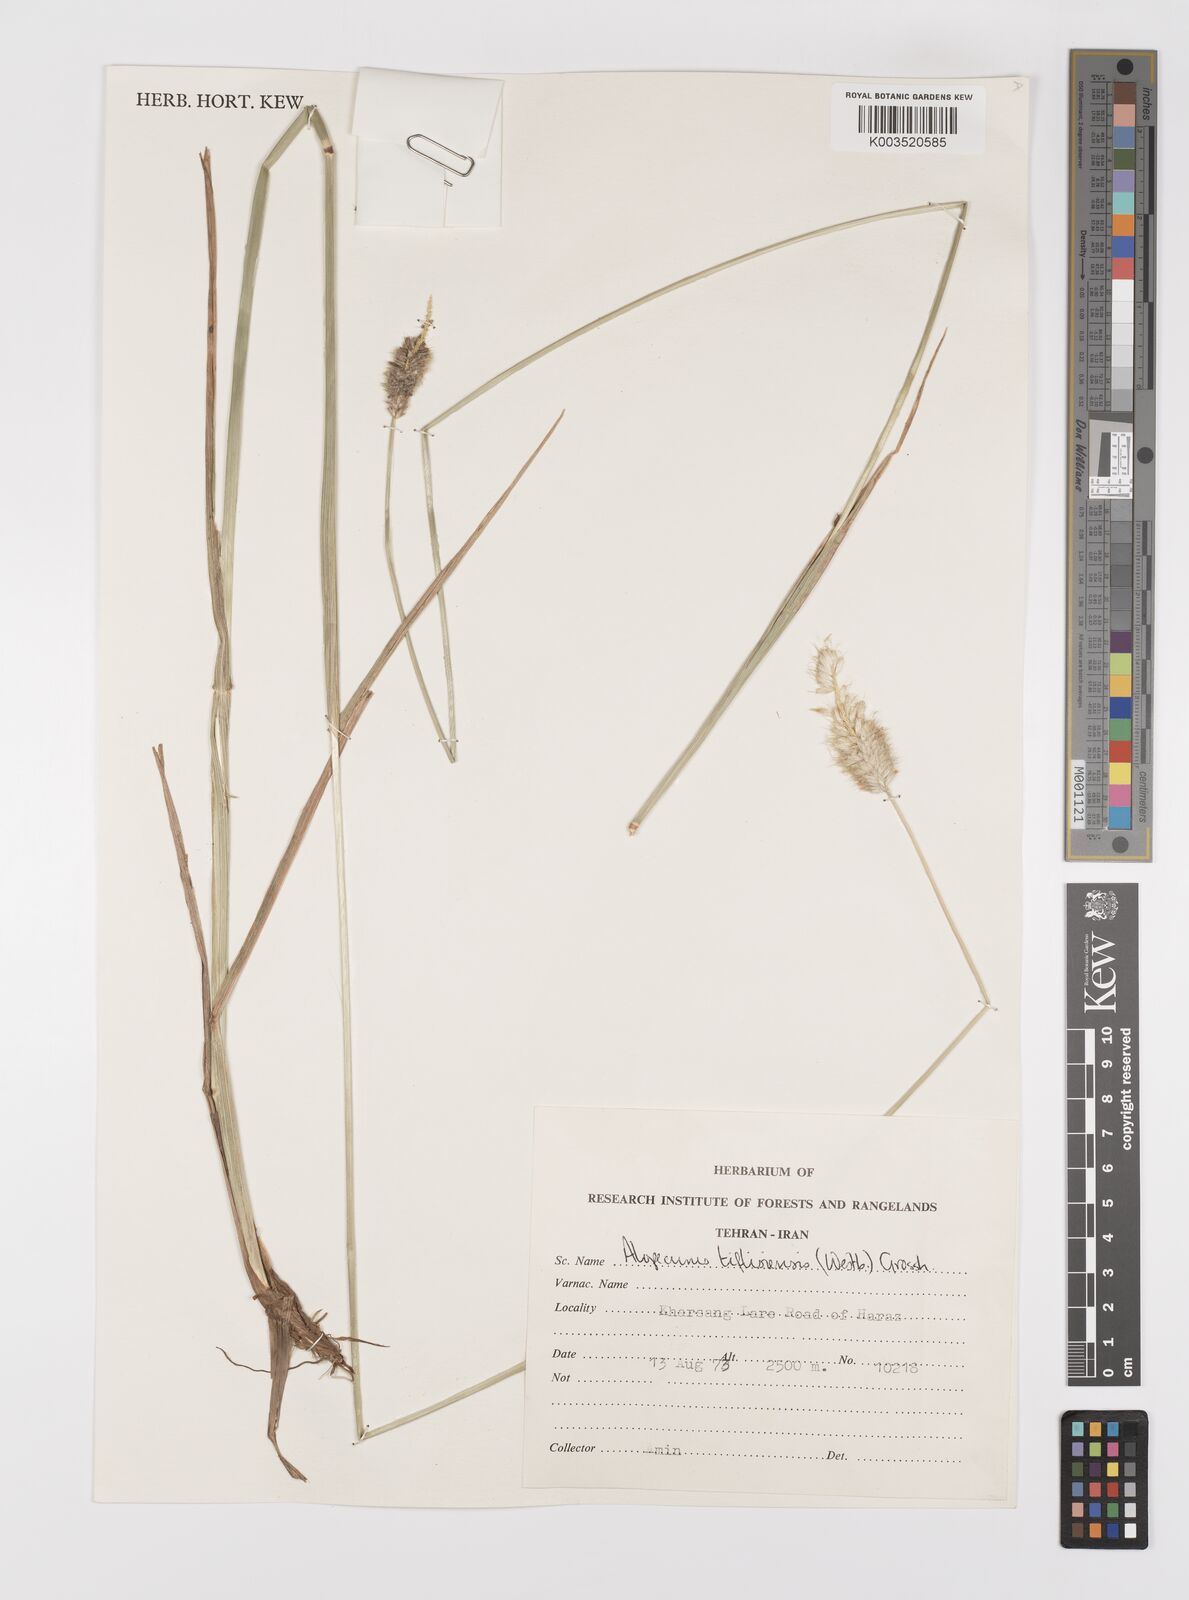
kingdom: Plantae
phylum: Tracheophyta
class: Liliopsida
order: Poales
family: Poaceae
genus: Alopecurus
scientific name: Alopecurus textilis
